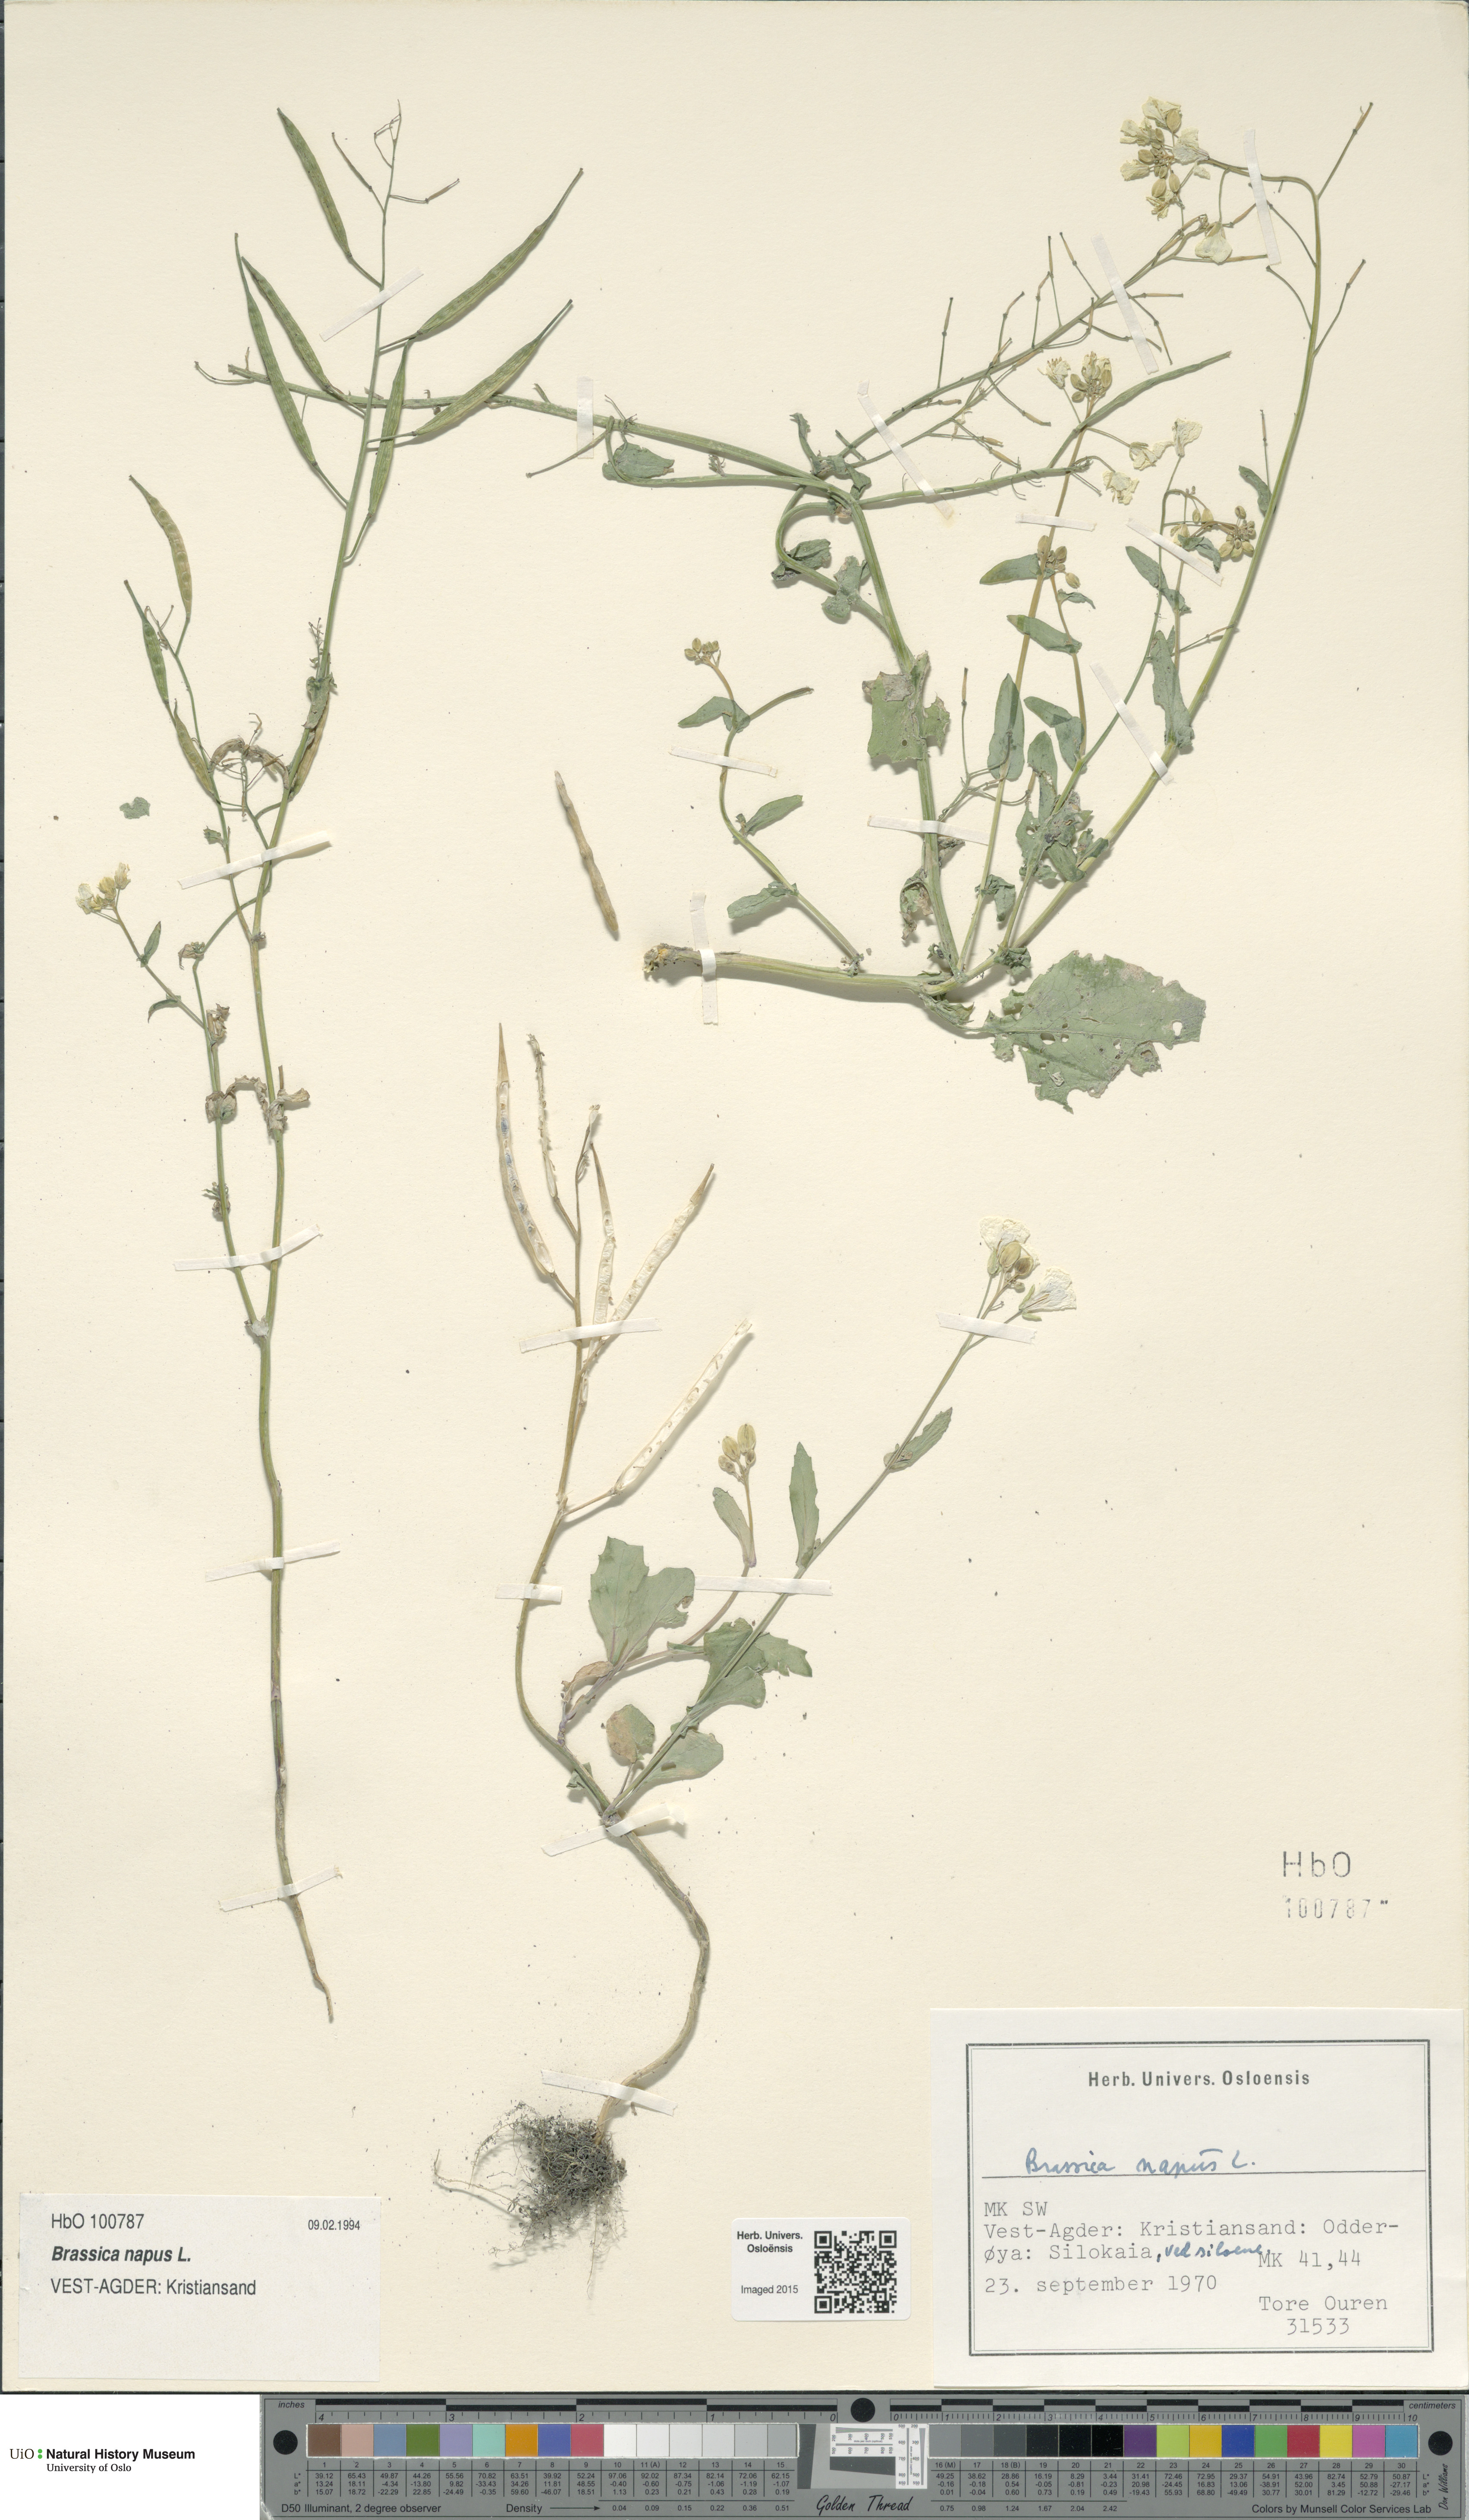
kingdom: Plantae
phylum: Tracheophyta
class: Magnoliopsida
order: Brassicales
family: Brassicaceae
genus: Brassica
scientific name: Brassica napus
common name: Rape
